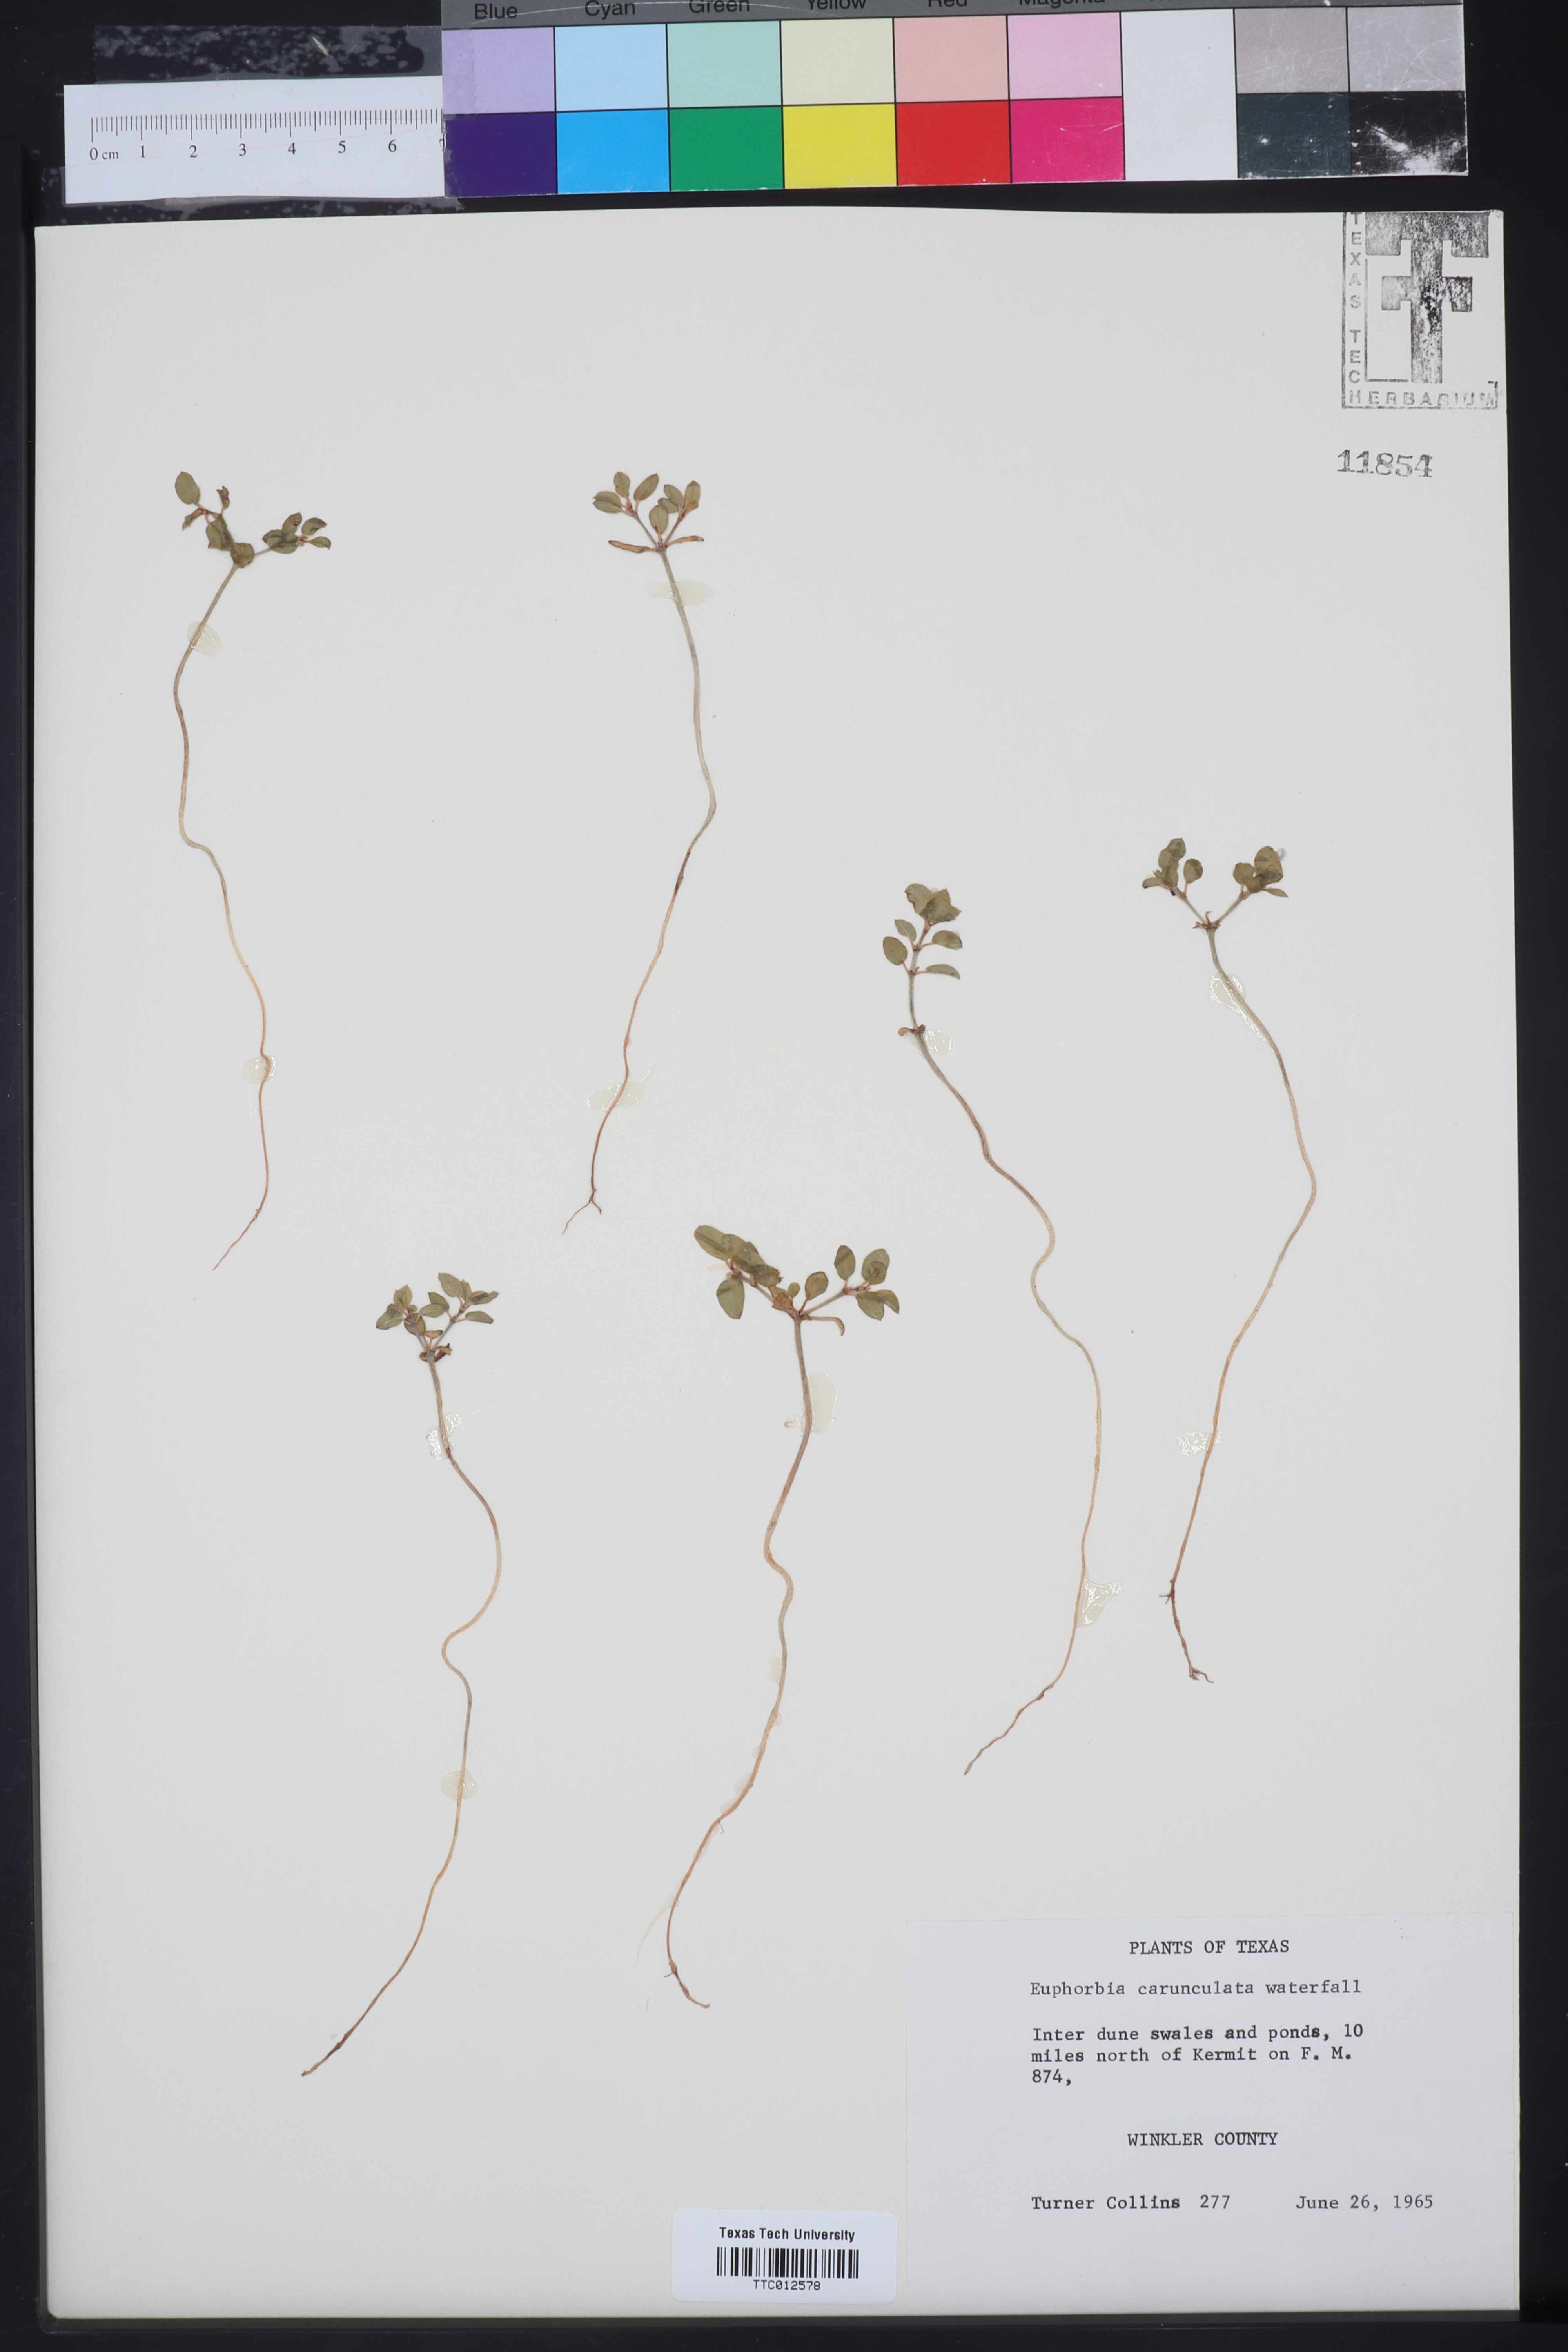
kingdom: Plantae
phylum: Tracheophyta
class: Magnoliopsida
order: Malpighiales
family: Euphorbiaceae
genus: Euphorbia
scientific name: Euphorbia carunculata
